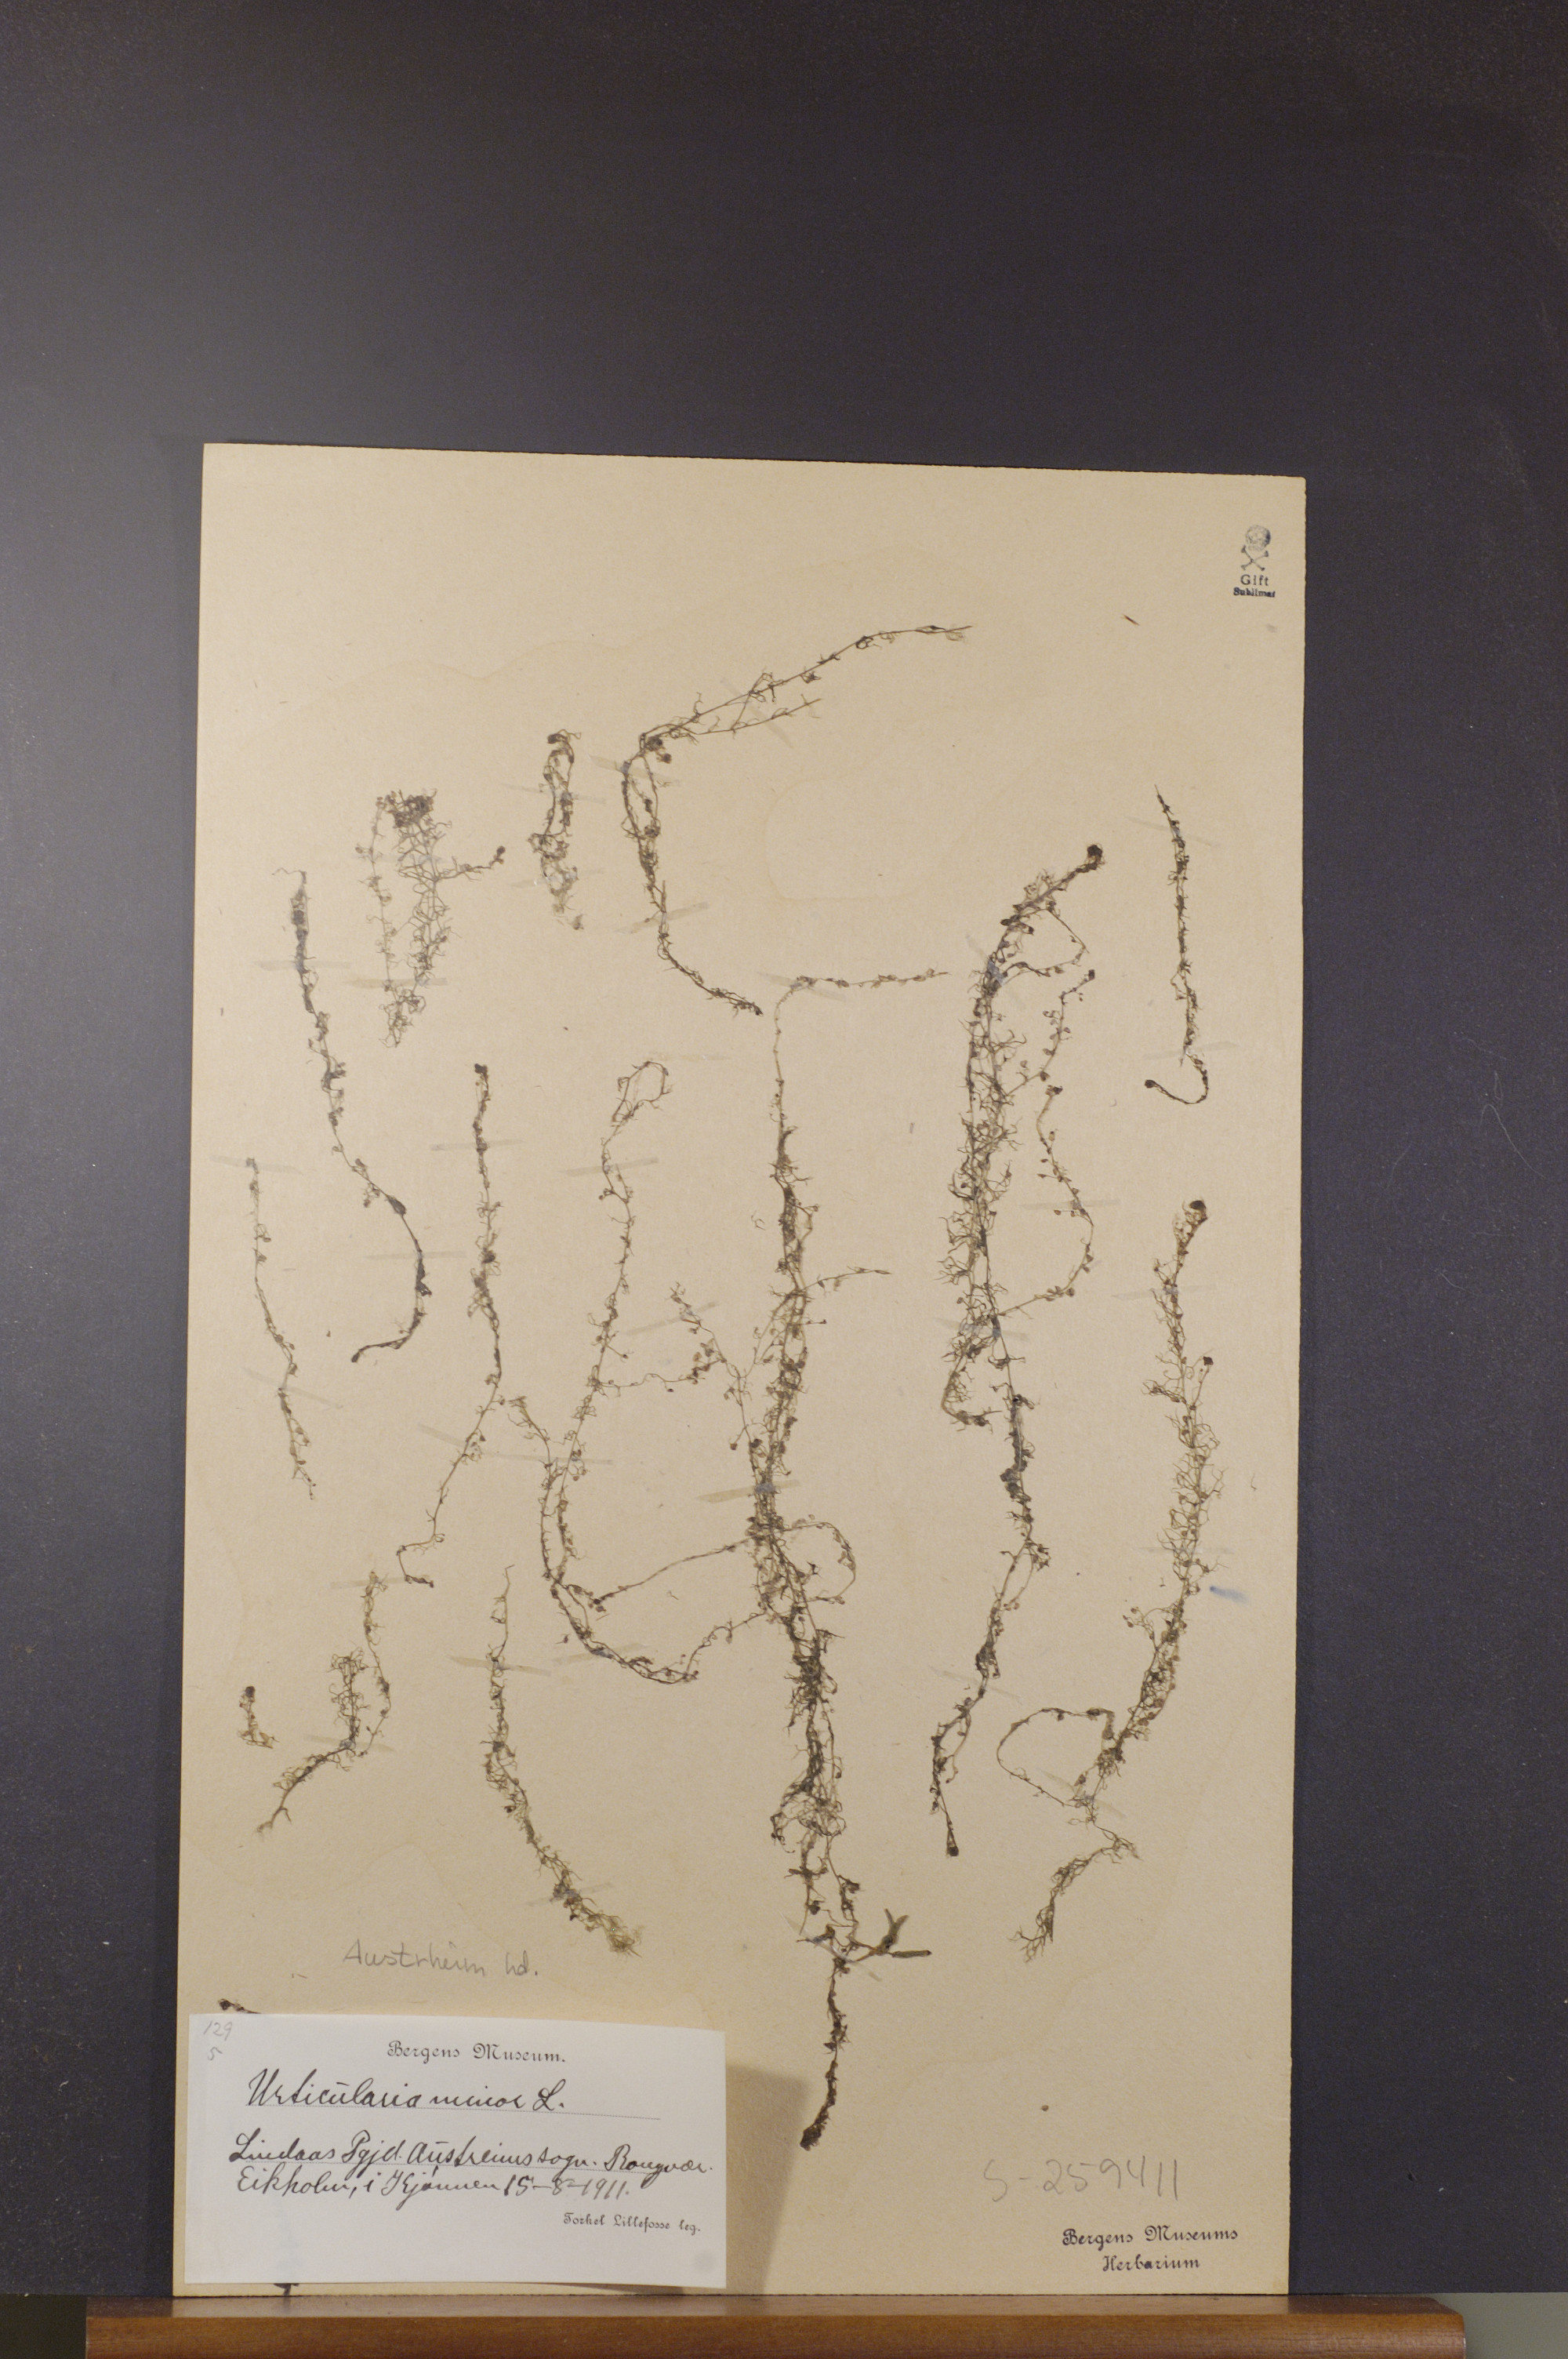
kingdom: Plantae
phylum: Tracheophyta
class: Magnoliopsida
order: Lamiales
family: Lentibulariaceae
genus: Utricularia
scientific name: Utricularia minor
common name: Lesser bladderwort
